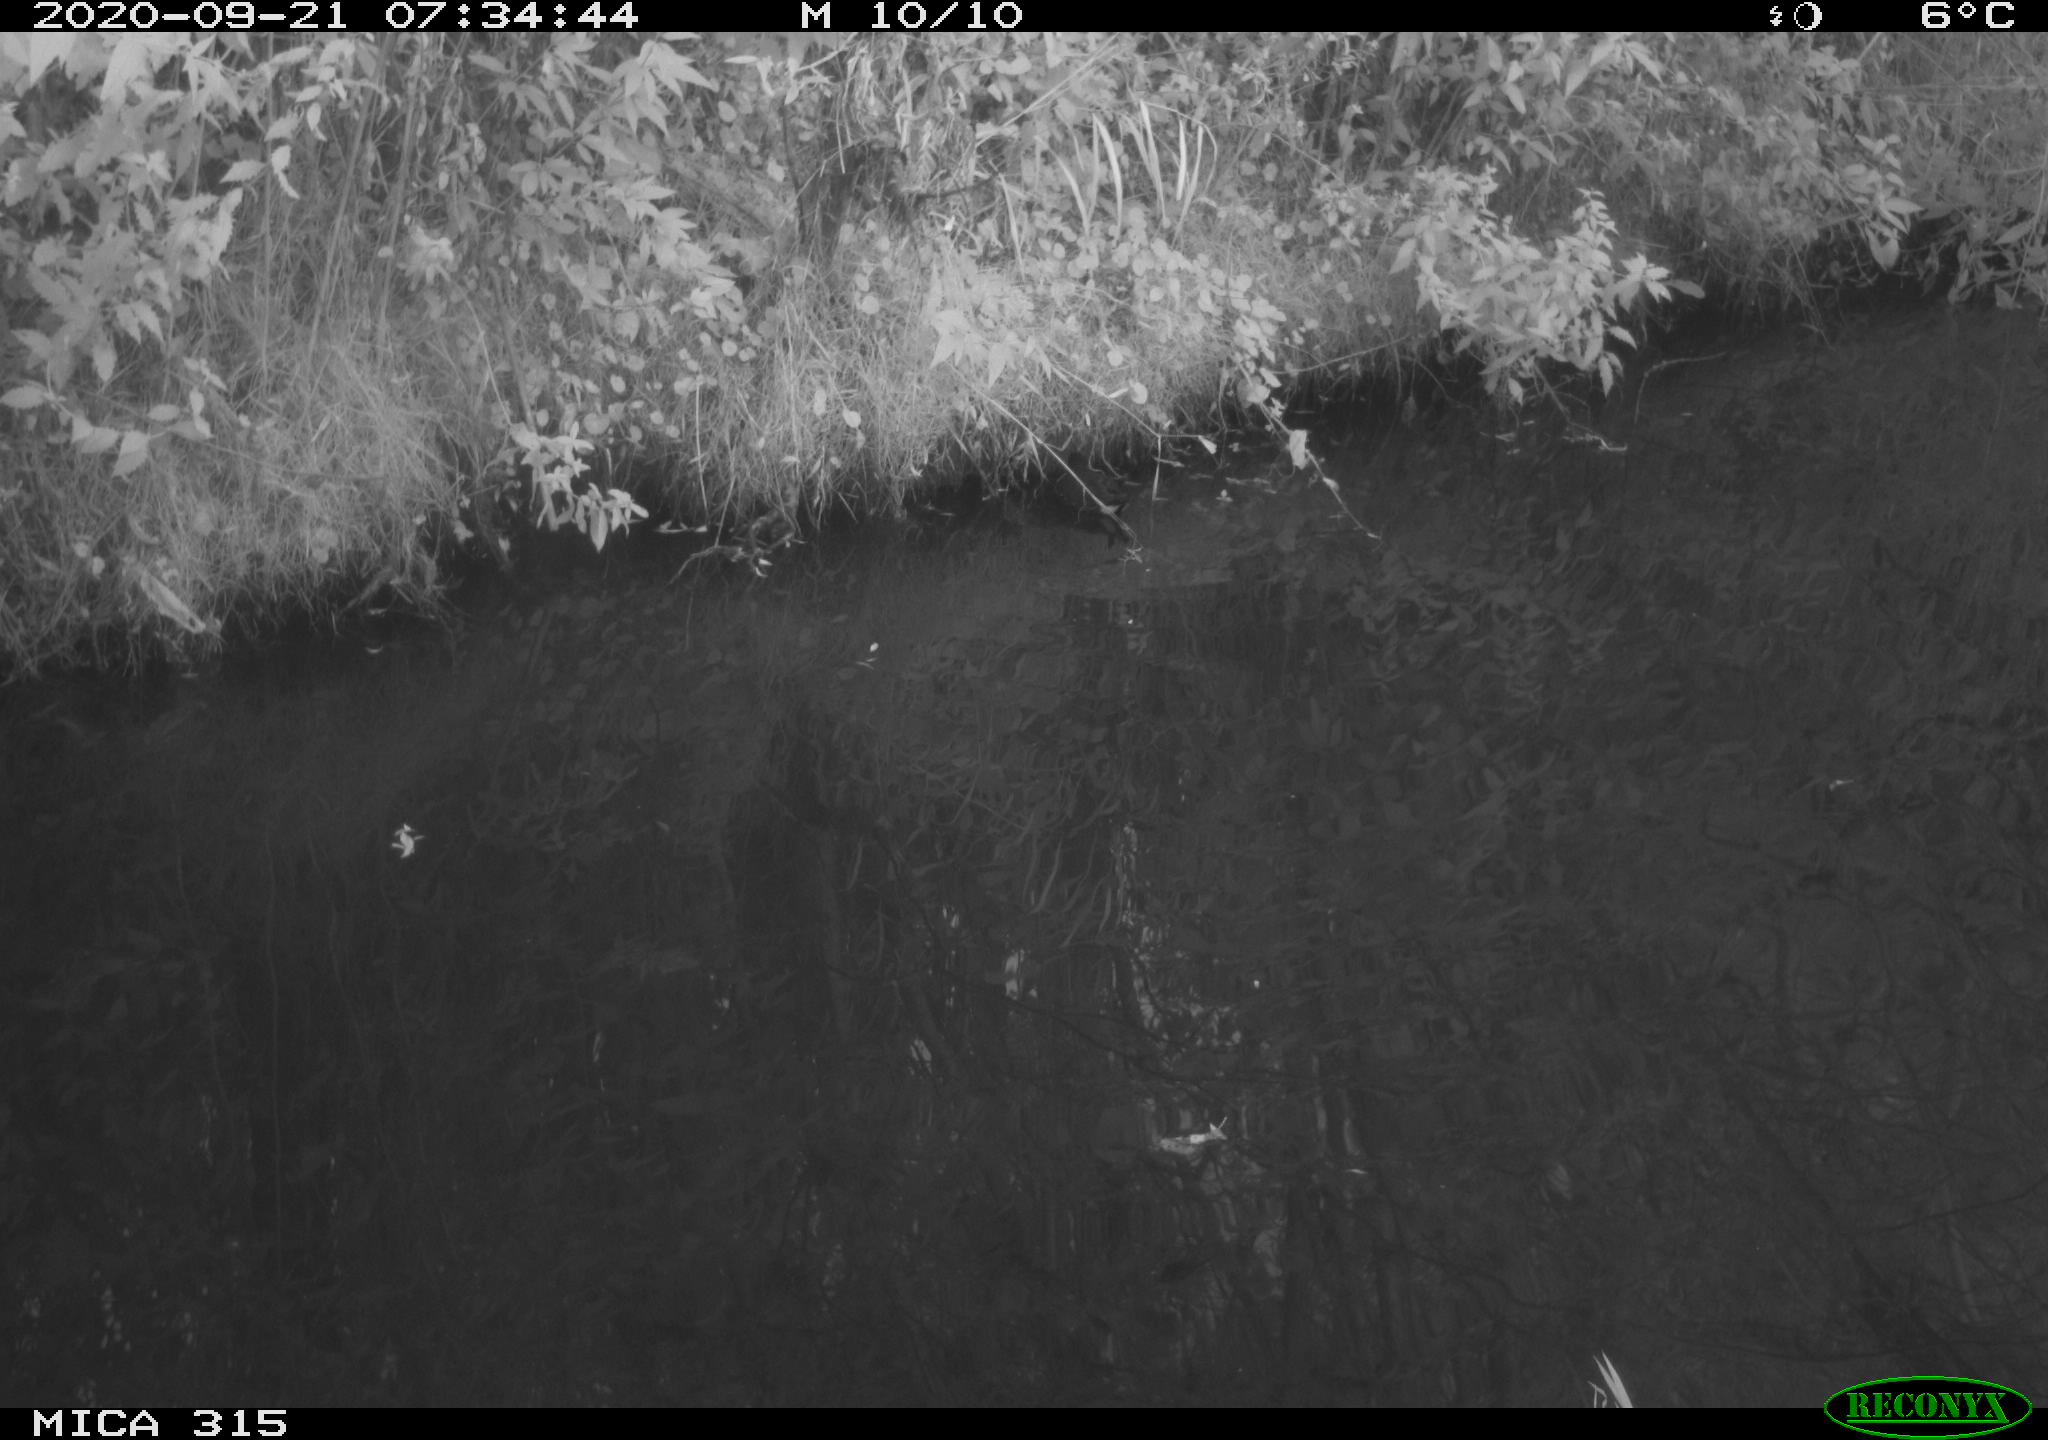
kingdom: Animalia
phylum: Chordata
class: Aves
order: Gruiformes
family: Rallidae
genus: Gallinula
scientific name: Gallinula chloropus
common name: Common moorhen
